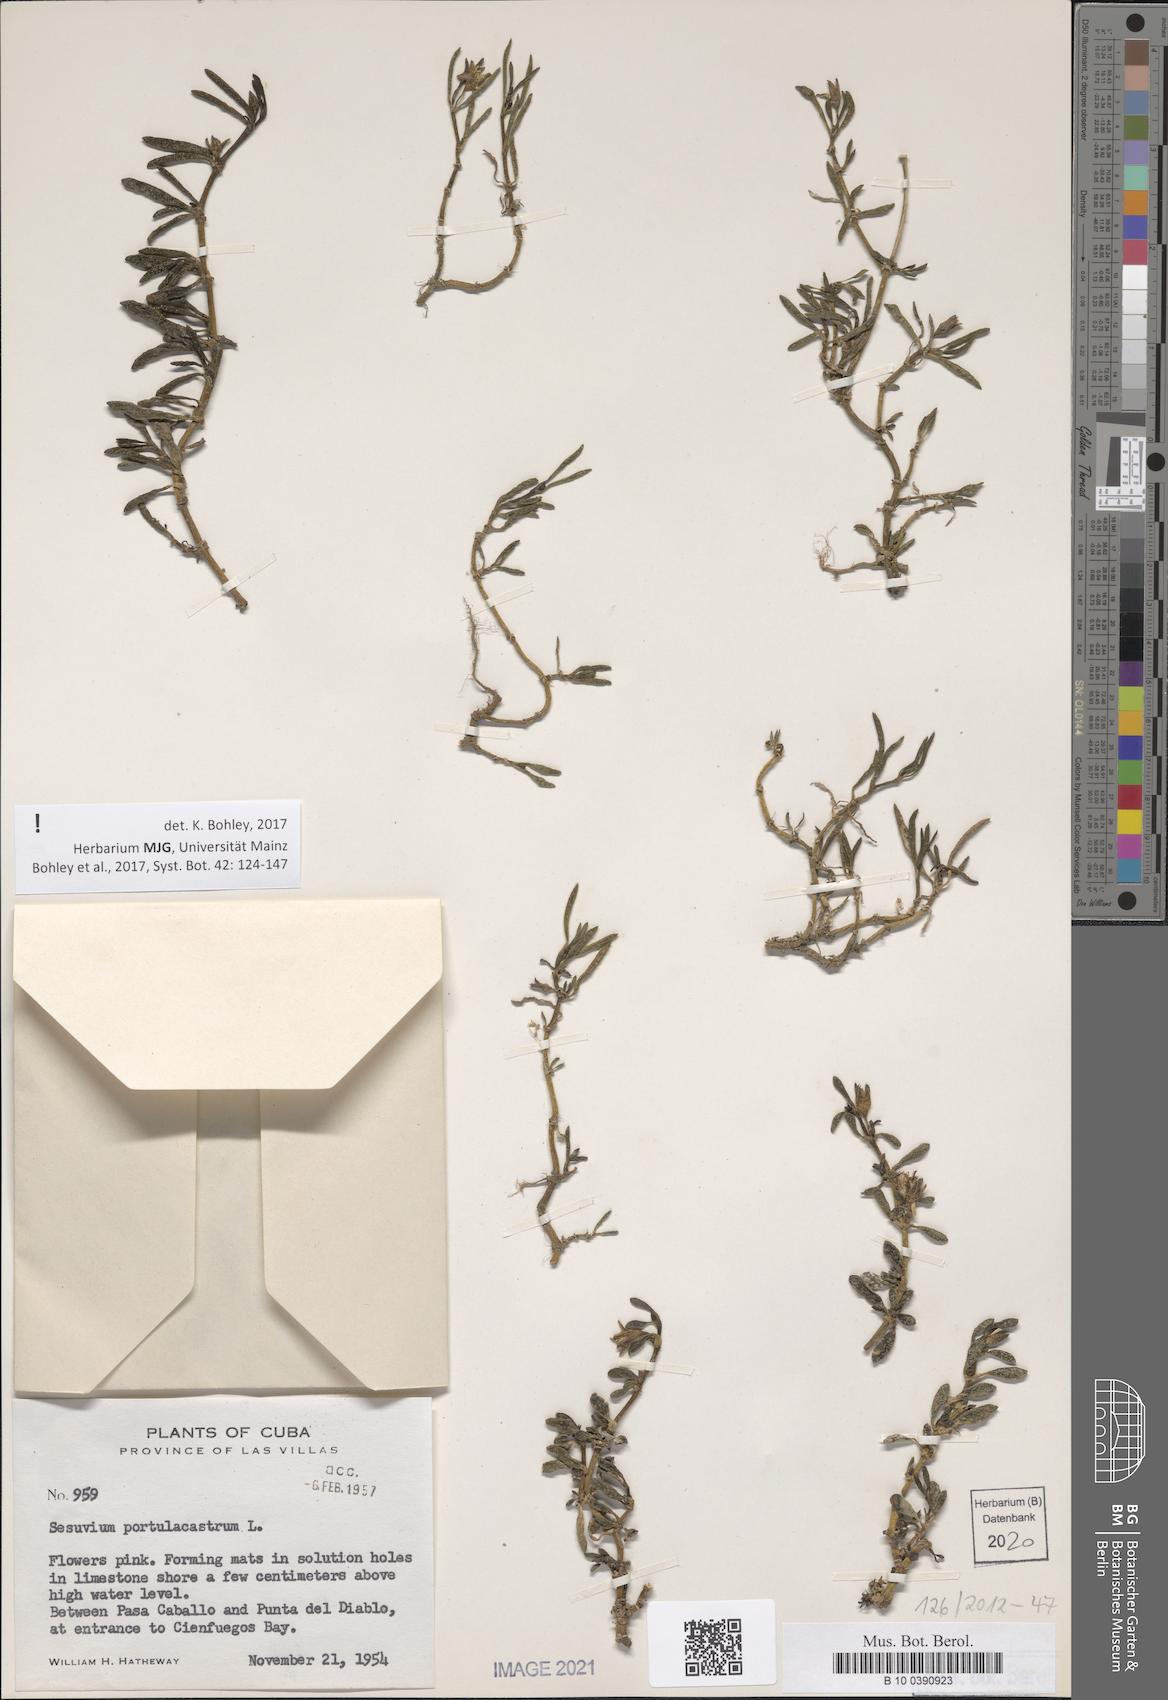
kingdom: Plantae
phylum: Tracheophyta
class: Magnoliopsida
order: Caryophyllales
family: Aizoaceae
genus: Sesuvium
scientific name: Sesuvium portulacastrum
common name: Sea-purslane
